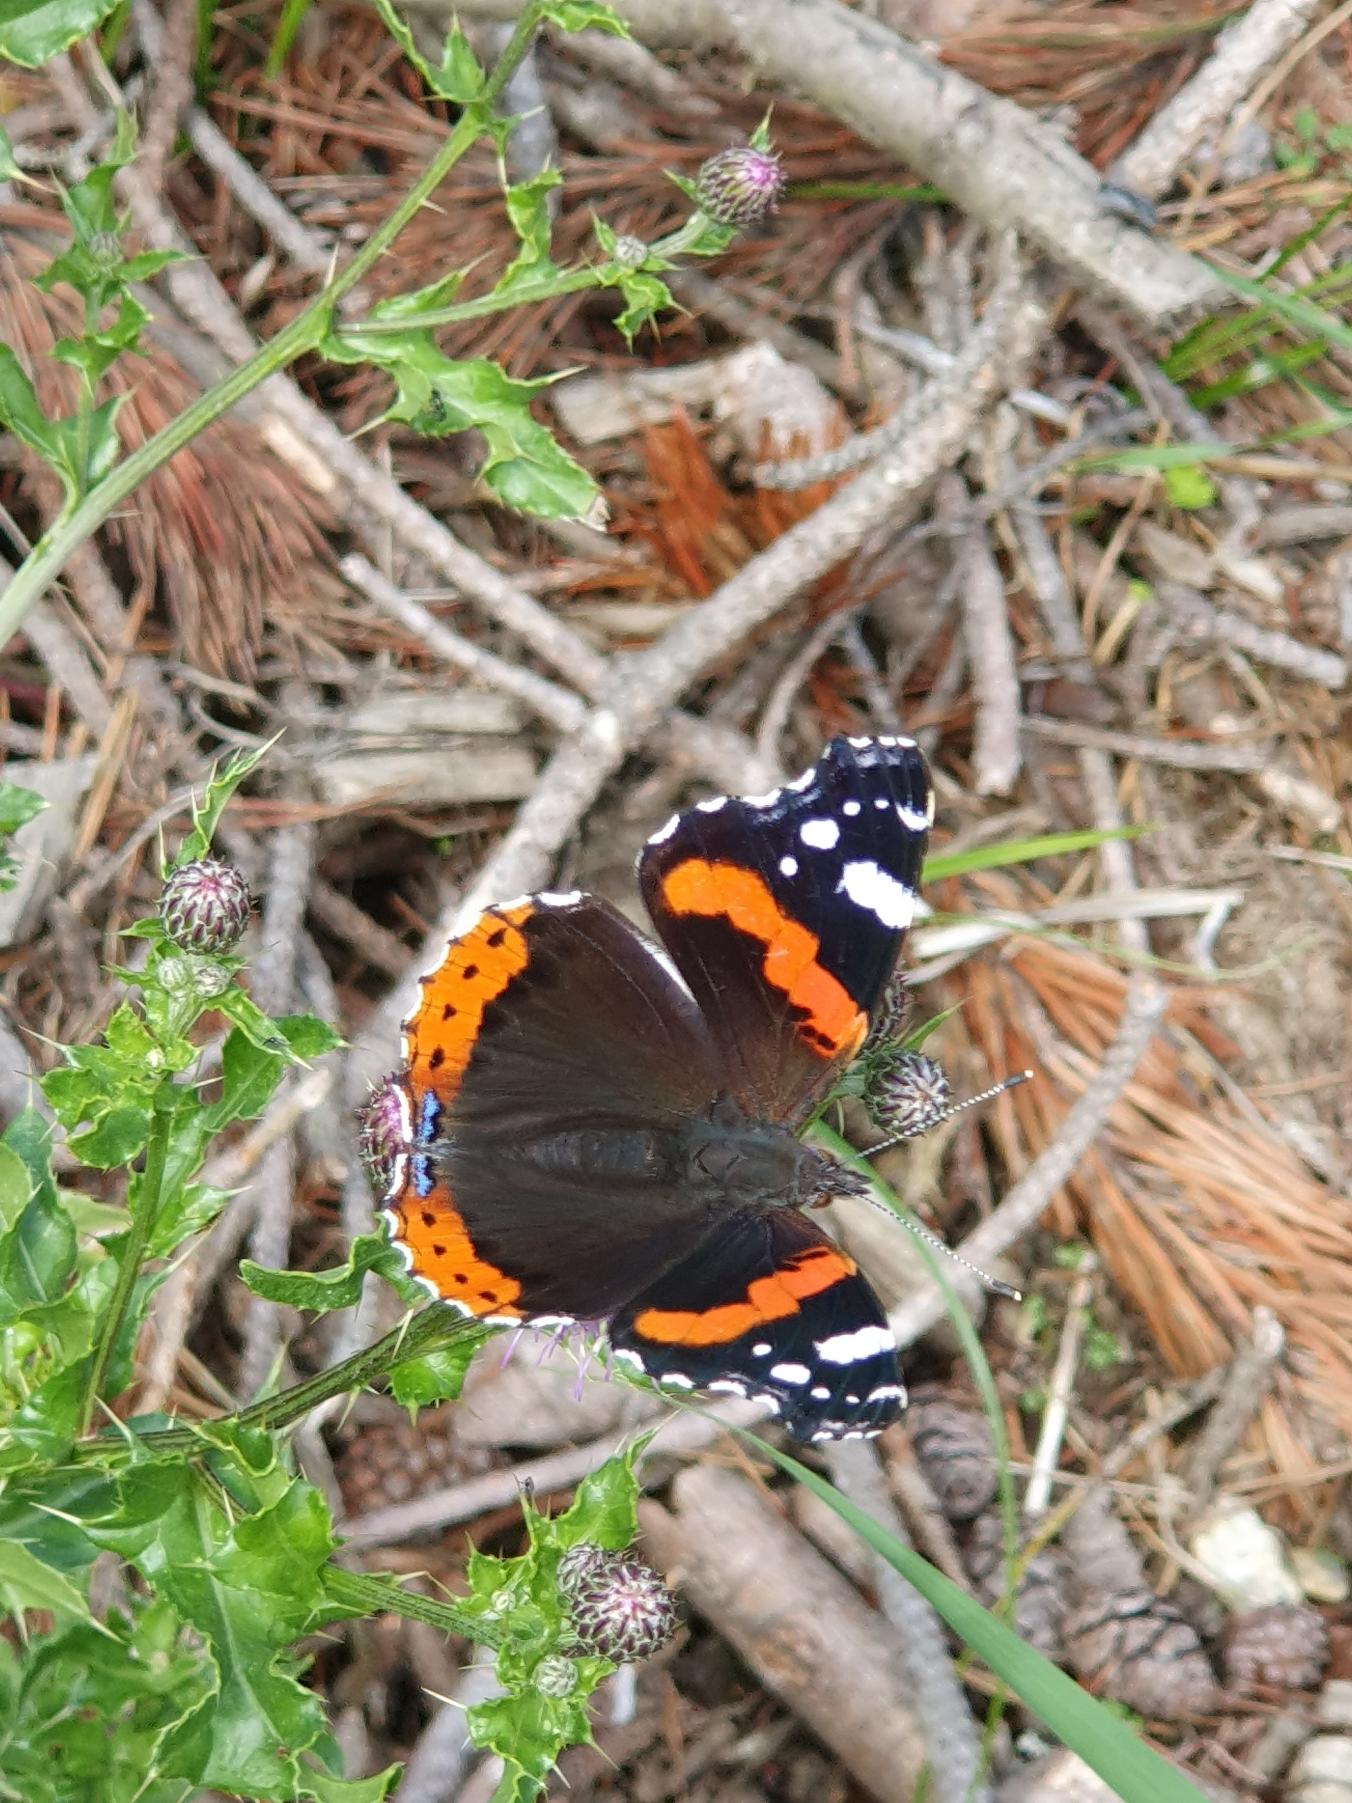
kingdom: Animalia
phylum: Arthropoda
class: Insecta
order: Lepidoptera
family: Nymphalidae
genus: Vanessa
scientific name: Vanessa atalanta
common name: Admiral
